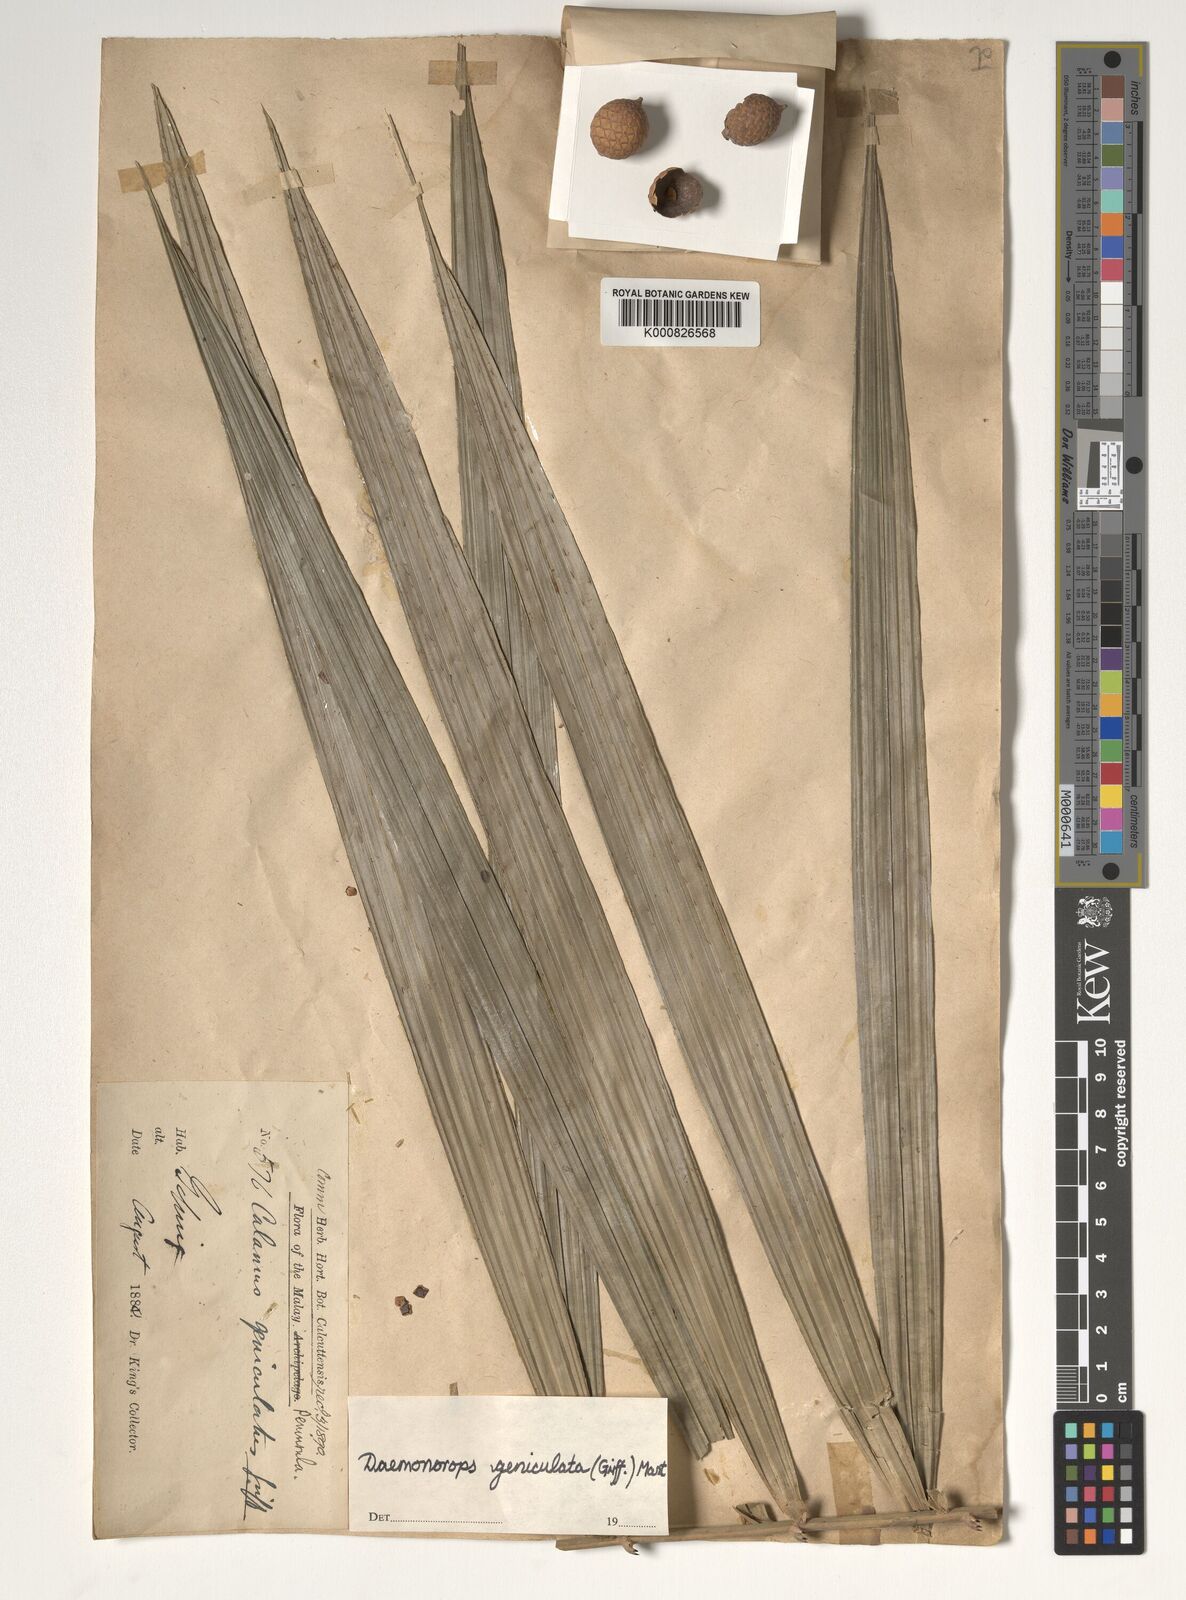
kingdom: Plantae
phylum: Tracheophyta
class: Liliopsida
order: Arecales
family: Arecaceae
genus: Calamus
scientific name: Calamus geniculatus
